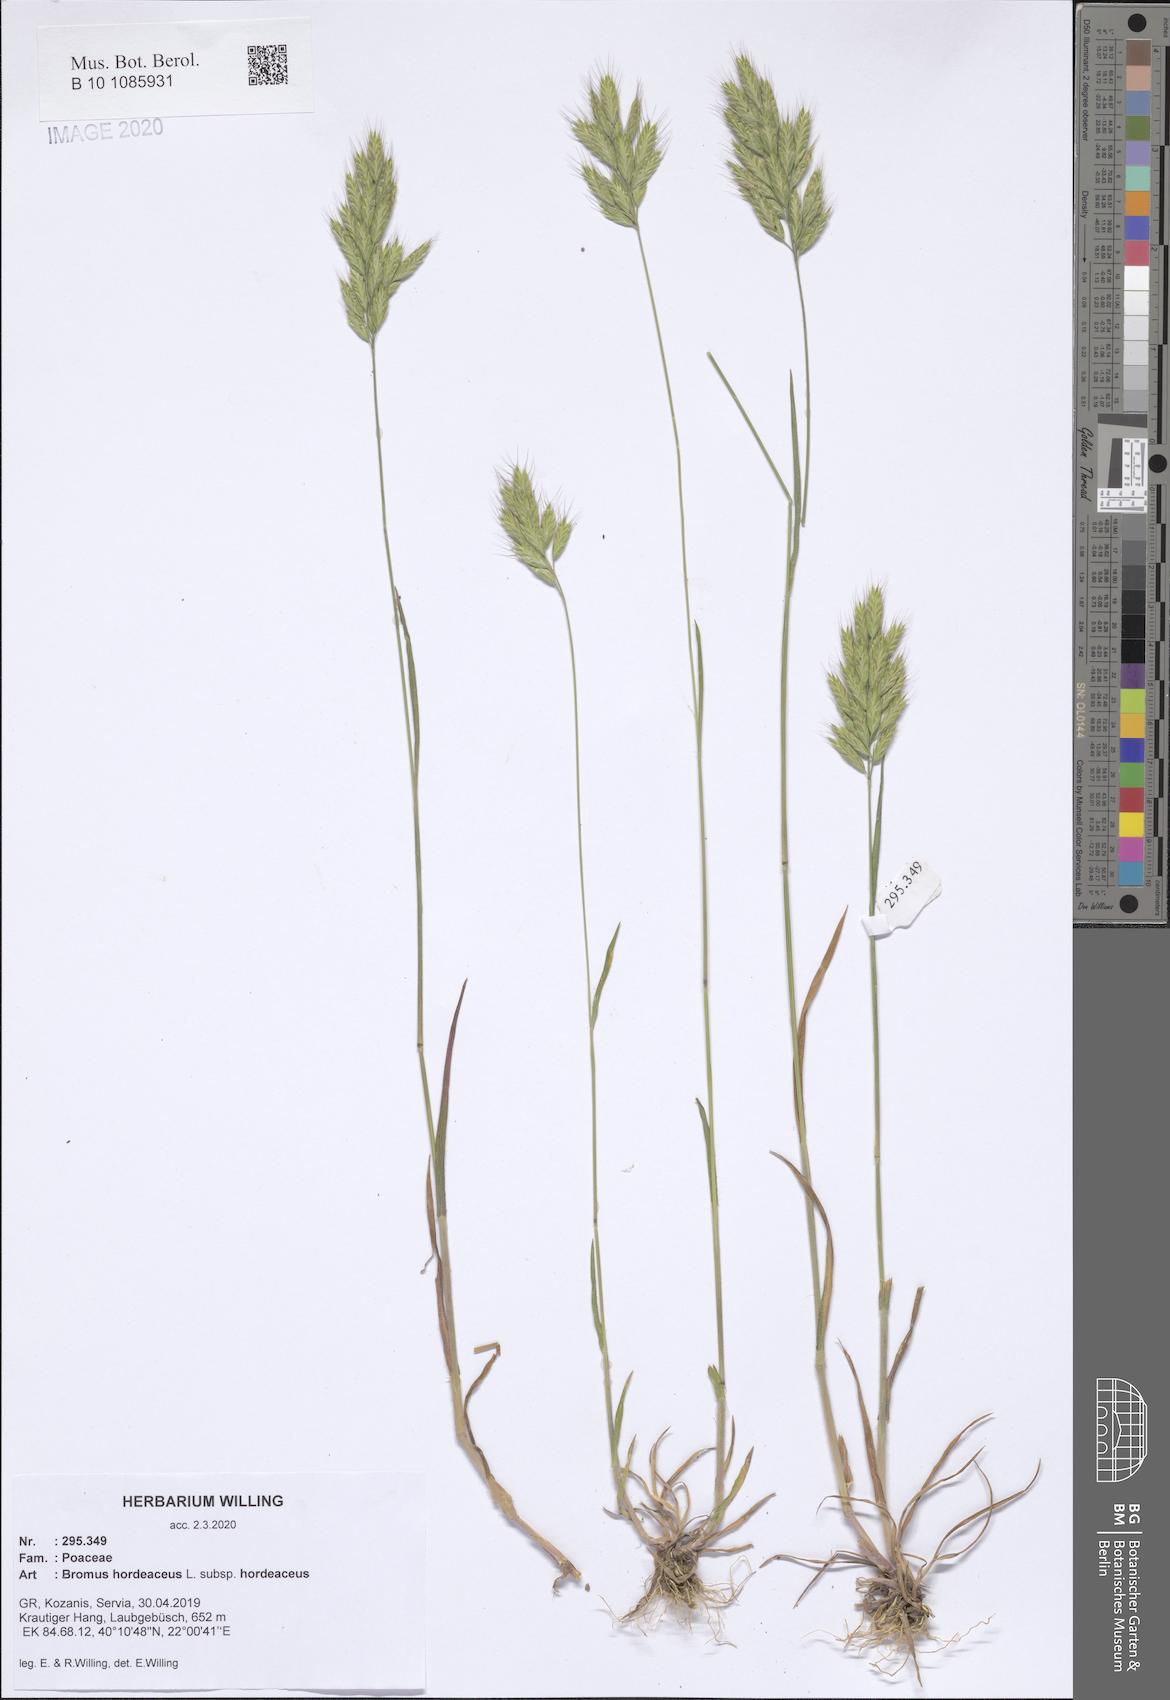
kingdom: Plantae
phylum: Tracheophyta
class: Liliopsida
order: Poales
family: Poaceae
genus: Bromus
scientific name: Bromus hordeaceus
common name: Soft brome
